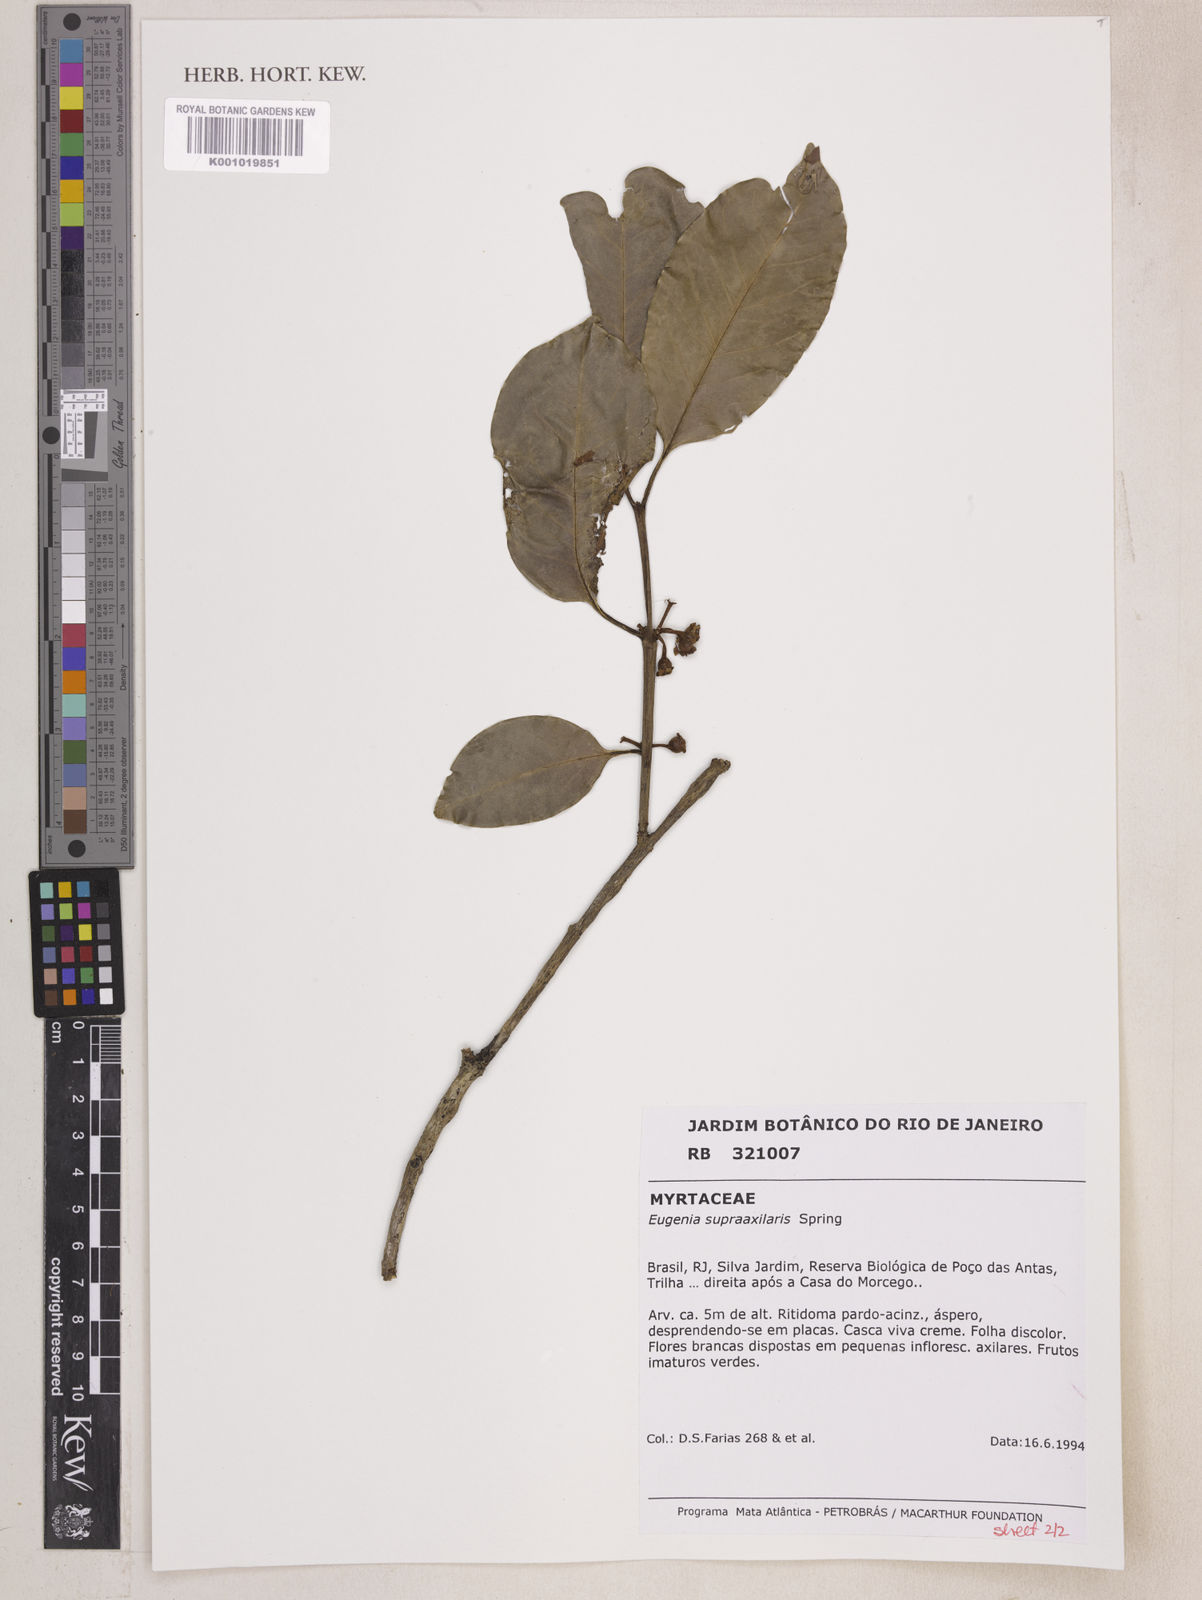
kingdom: Plantae
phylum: Tracheophyta
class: Magnoliopsida
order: Myrtales
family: Myrtaceae
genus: Eugenia
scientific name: Eugenia
